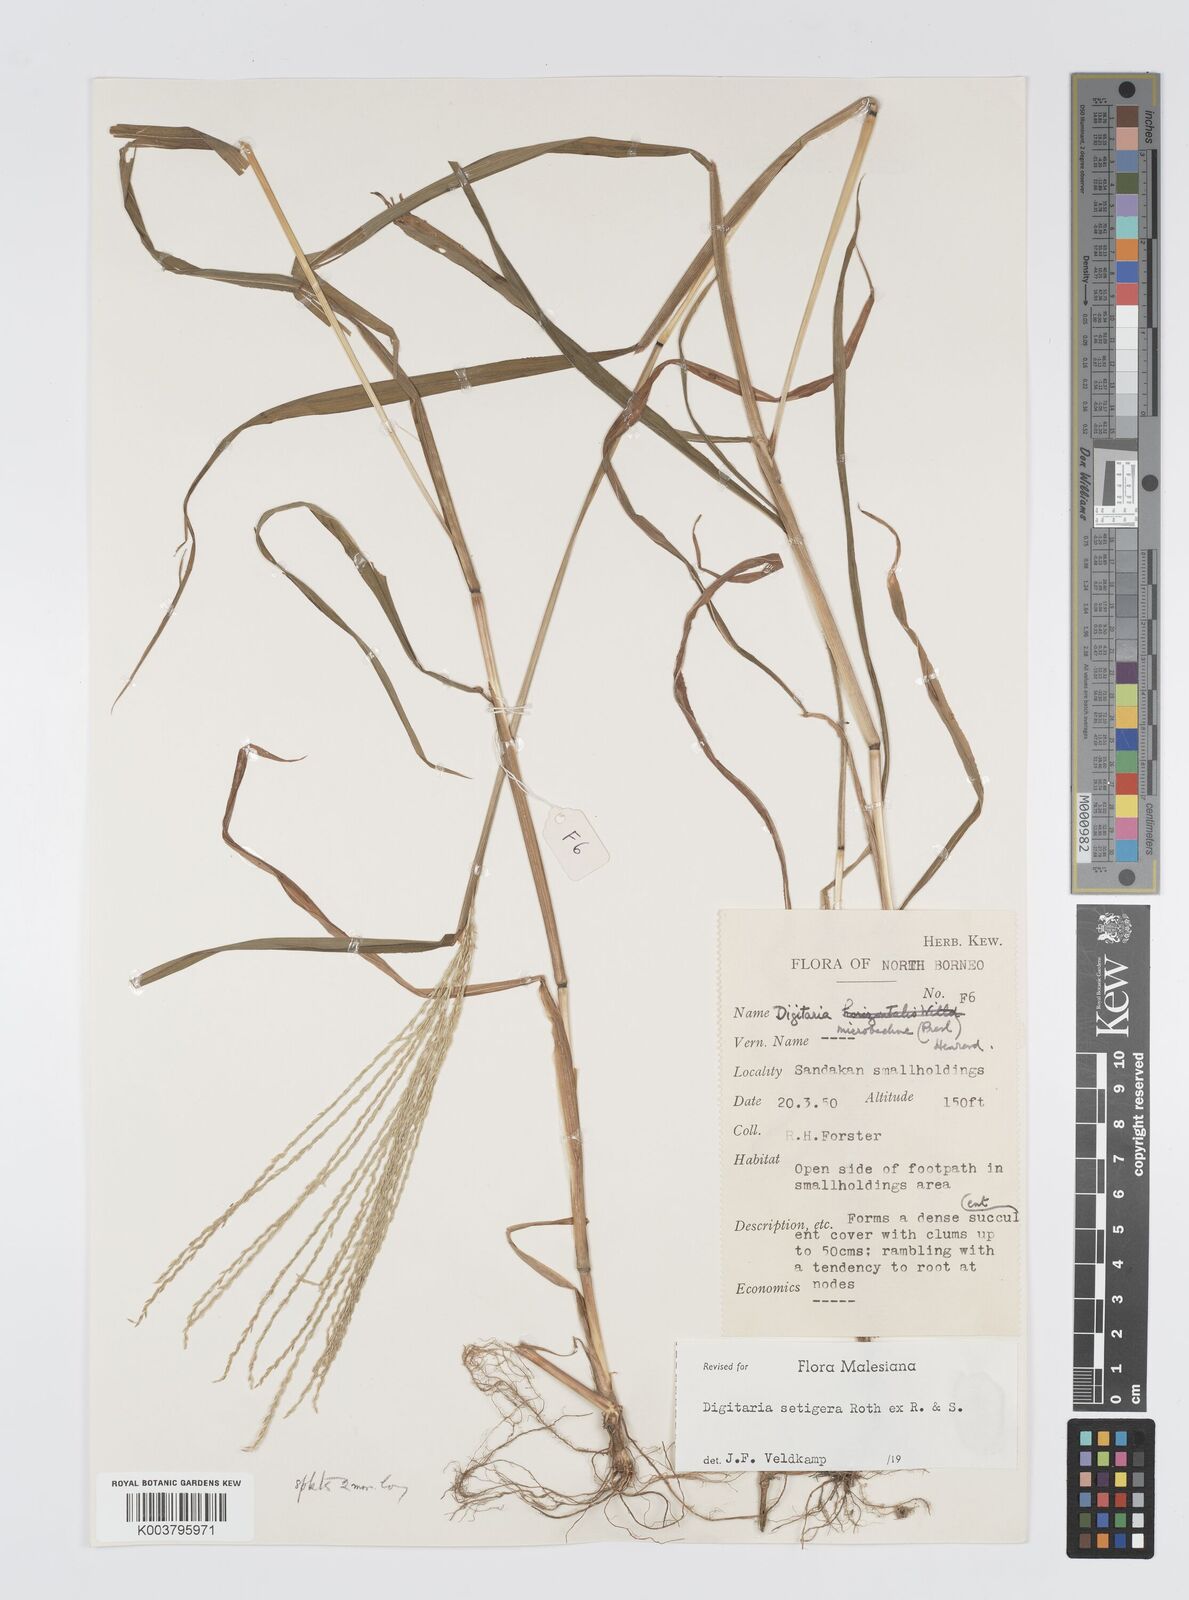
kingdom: Plantae
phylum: Tracheophyta
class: Liliopsida
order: Poales
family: Poaceae
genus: Digitaria
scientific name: Digitaria setigera
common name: East indian crabgrass
